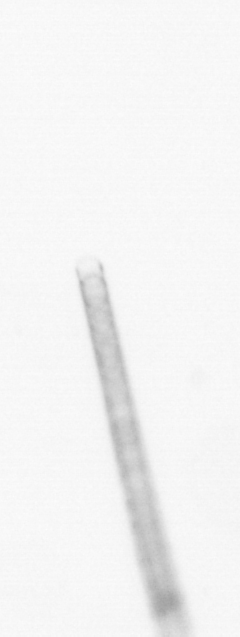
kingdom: Chromista
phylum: Ochrophyta
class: Bacillariophyceae
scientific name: Bacillariophyceae
